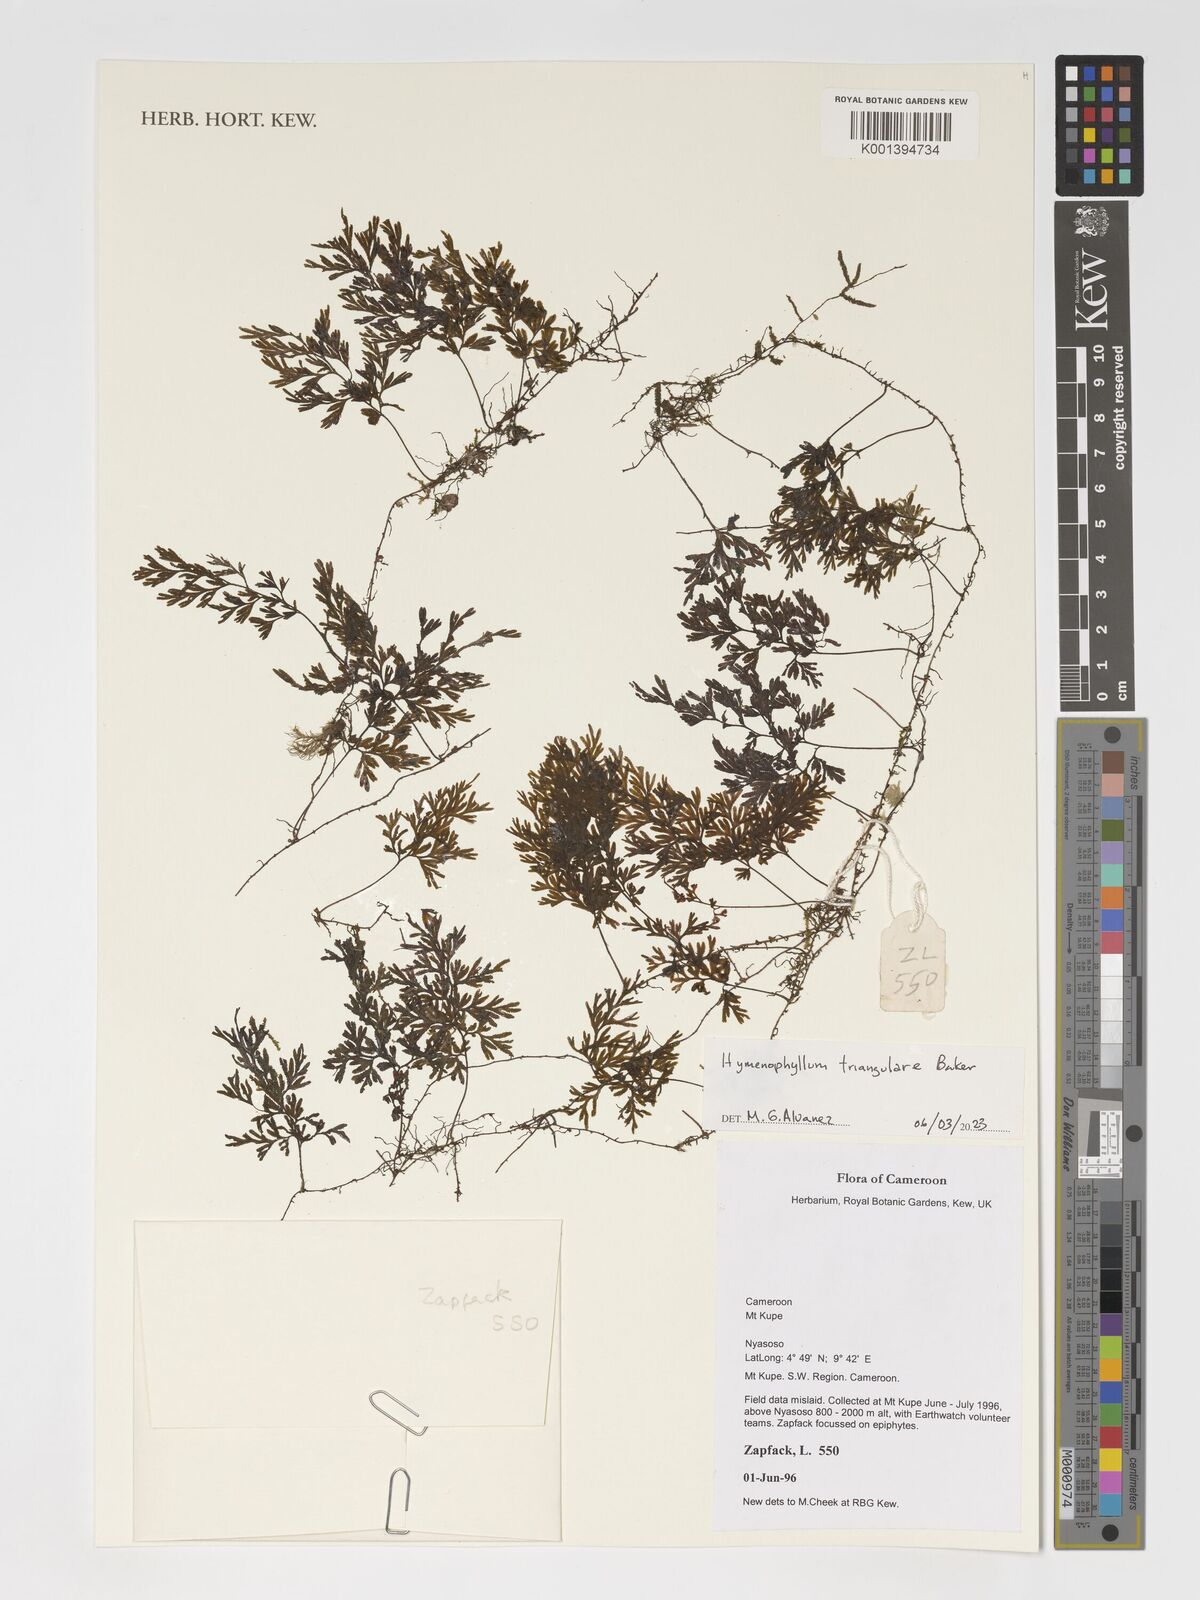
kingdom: Plantae
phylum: Tracheophyta
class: Polypodiopsida
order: Hymenophyllales
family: Hymenophyllaceae
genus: Hymenophyllum
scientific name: Hymenophyllum triangulare
